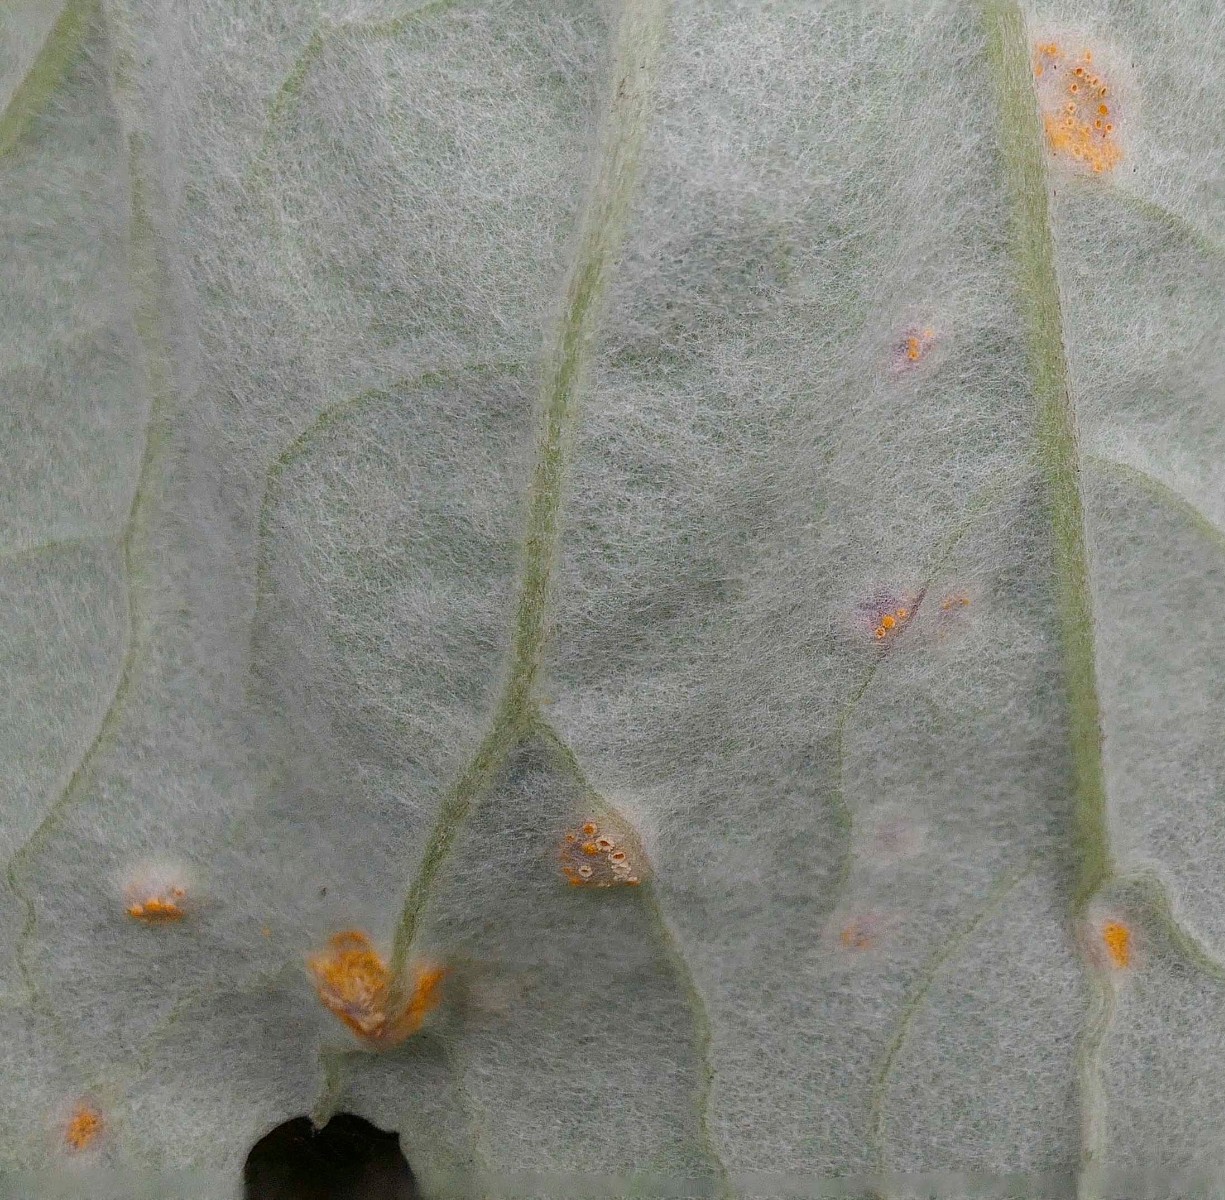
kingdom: Fungi
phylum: Basidiomycota
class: Pucciniomycetes
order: Pucciniales
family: Pucciniaceae
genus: Puccinia
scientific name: Puccinia poarum
